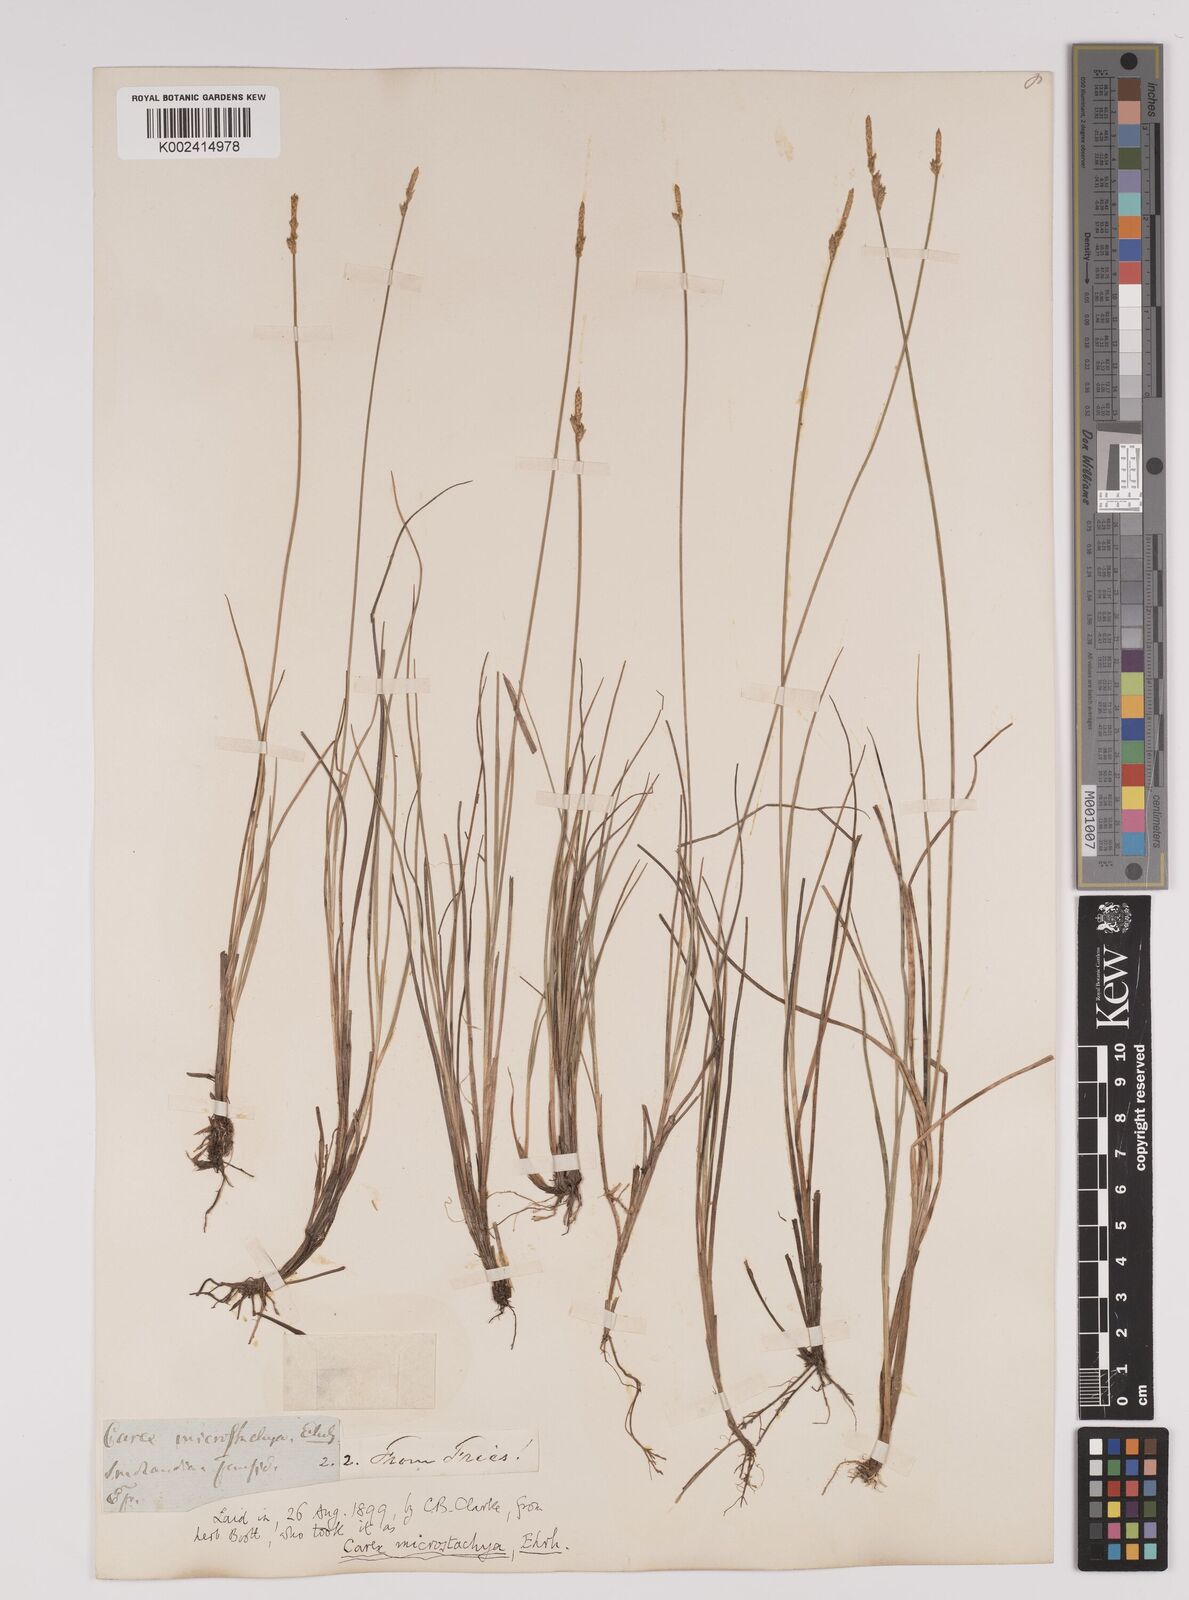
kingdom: Plantae
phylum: Tracheophyta
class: Liliopsida
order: Poales
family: Cyperaceae
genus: Carex
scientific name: Carex dioica
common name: Dioecious sedge
